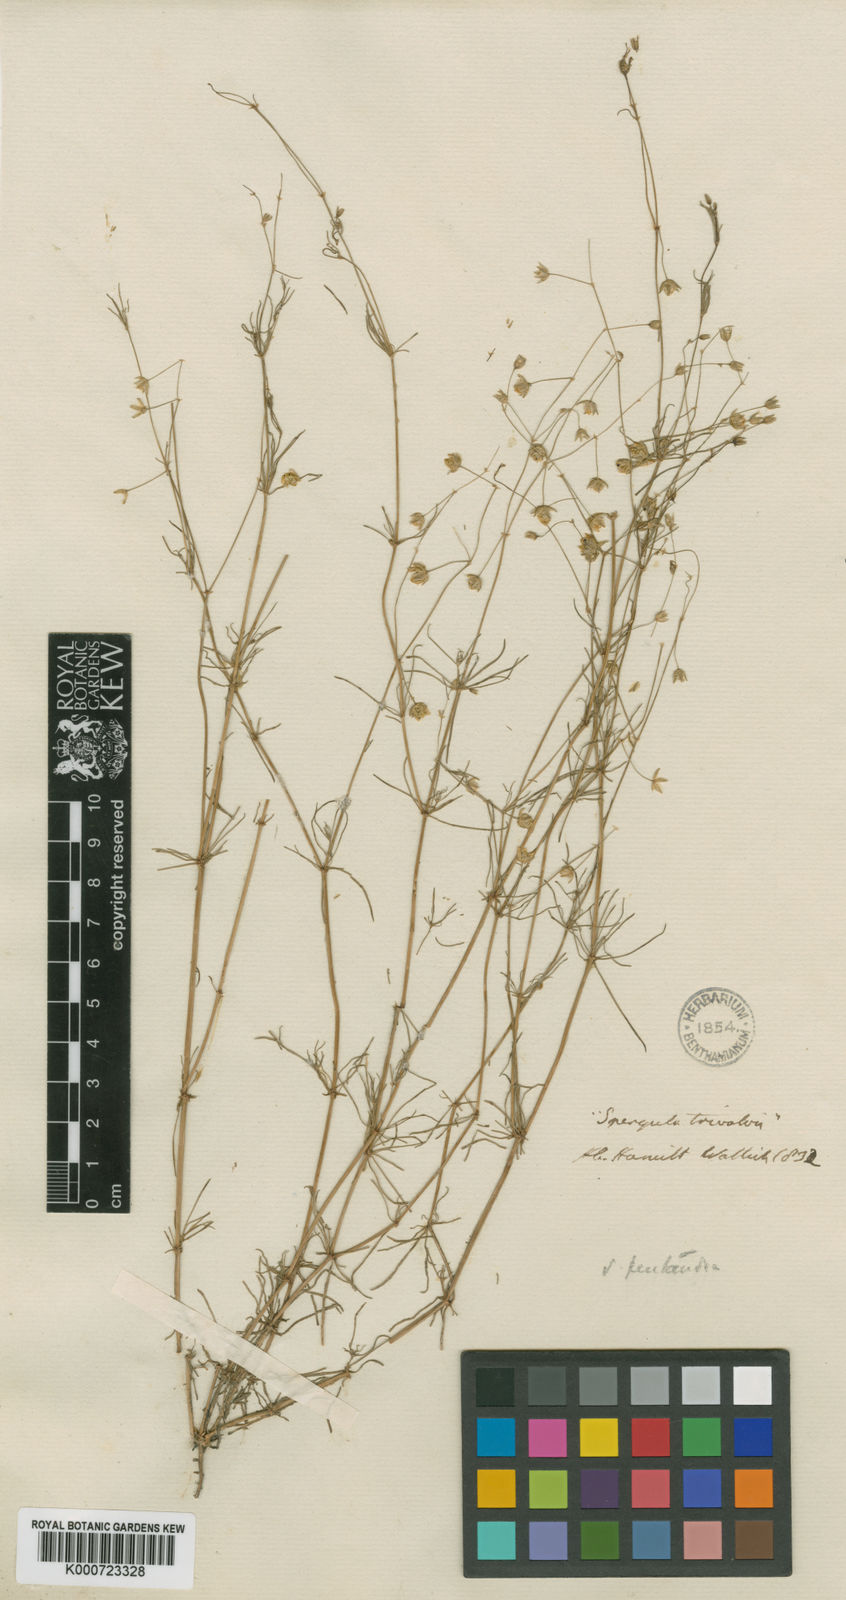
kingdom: Plantae
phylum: Tracheophyta
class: Magnoliopsida
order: Caryophyllales
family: Caryophyllaceae
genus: Spergularia
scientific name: Spergularia flaccida
